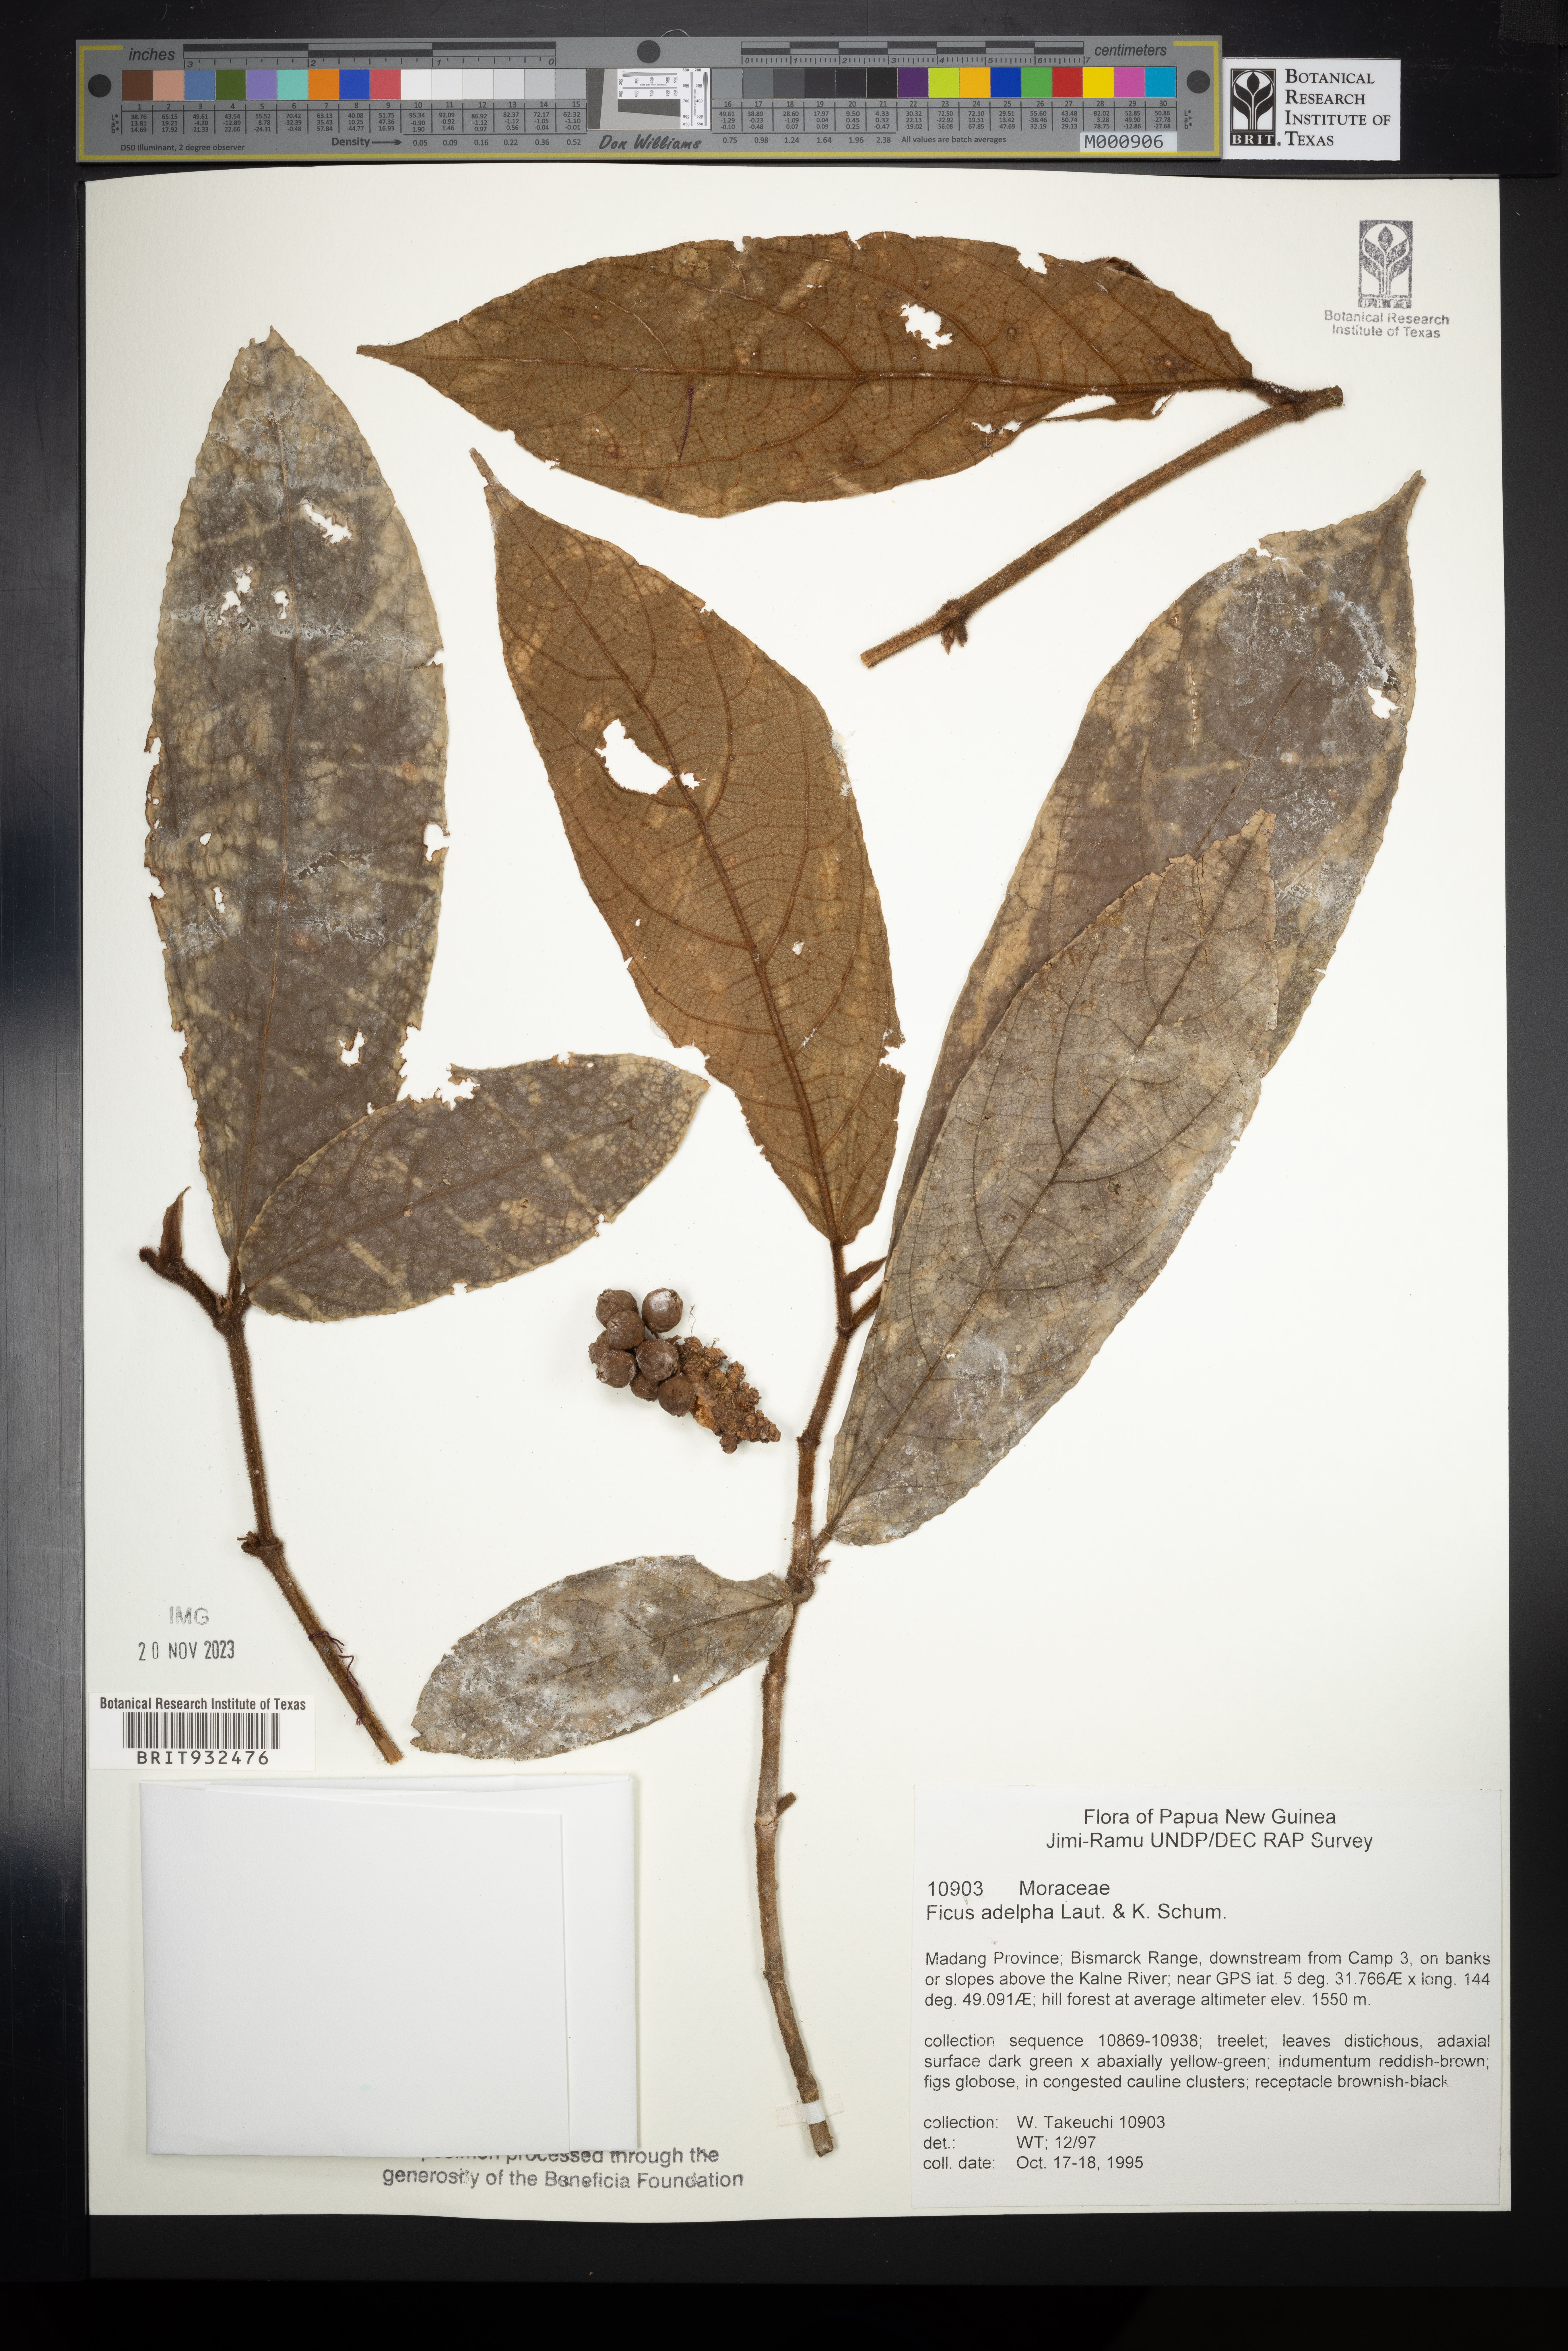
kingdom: Plantae
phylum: Tracheophyta
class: Magnoliopsida
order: Rosales
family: Moraceae
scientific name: Moraceae
